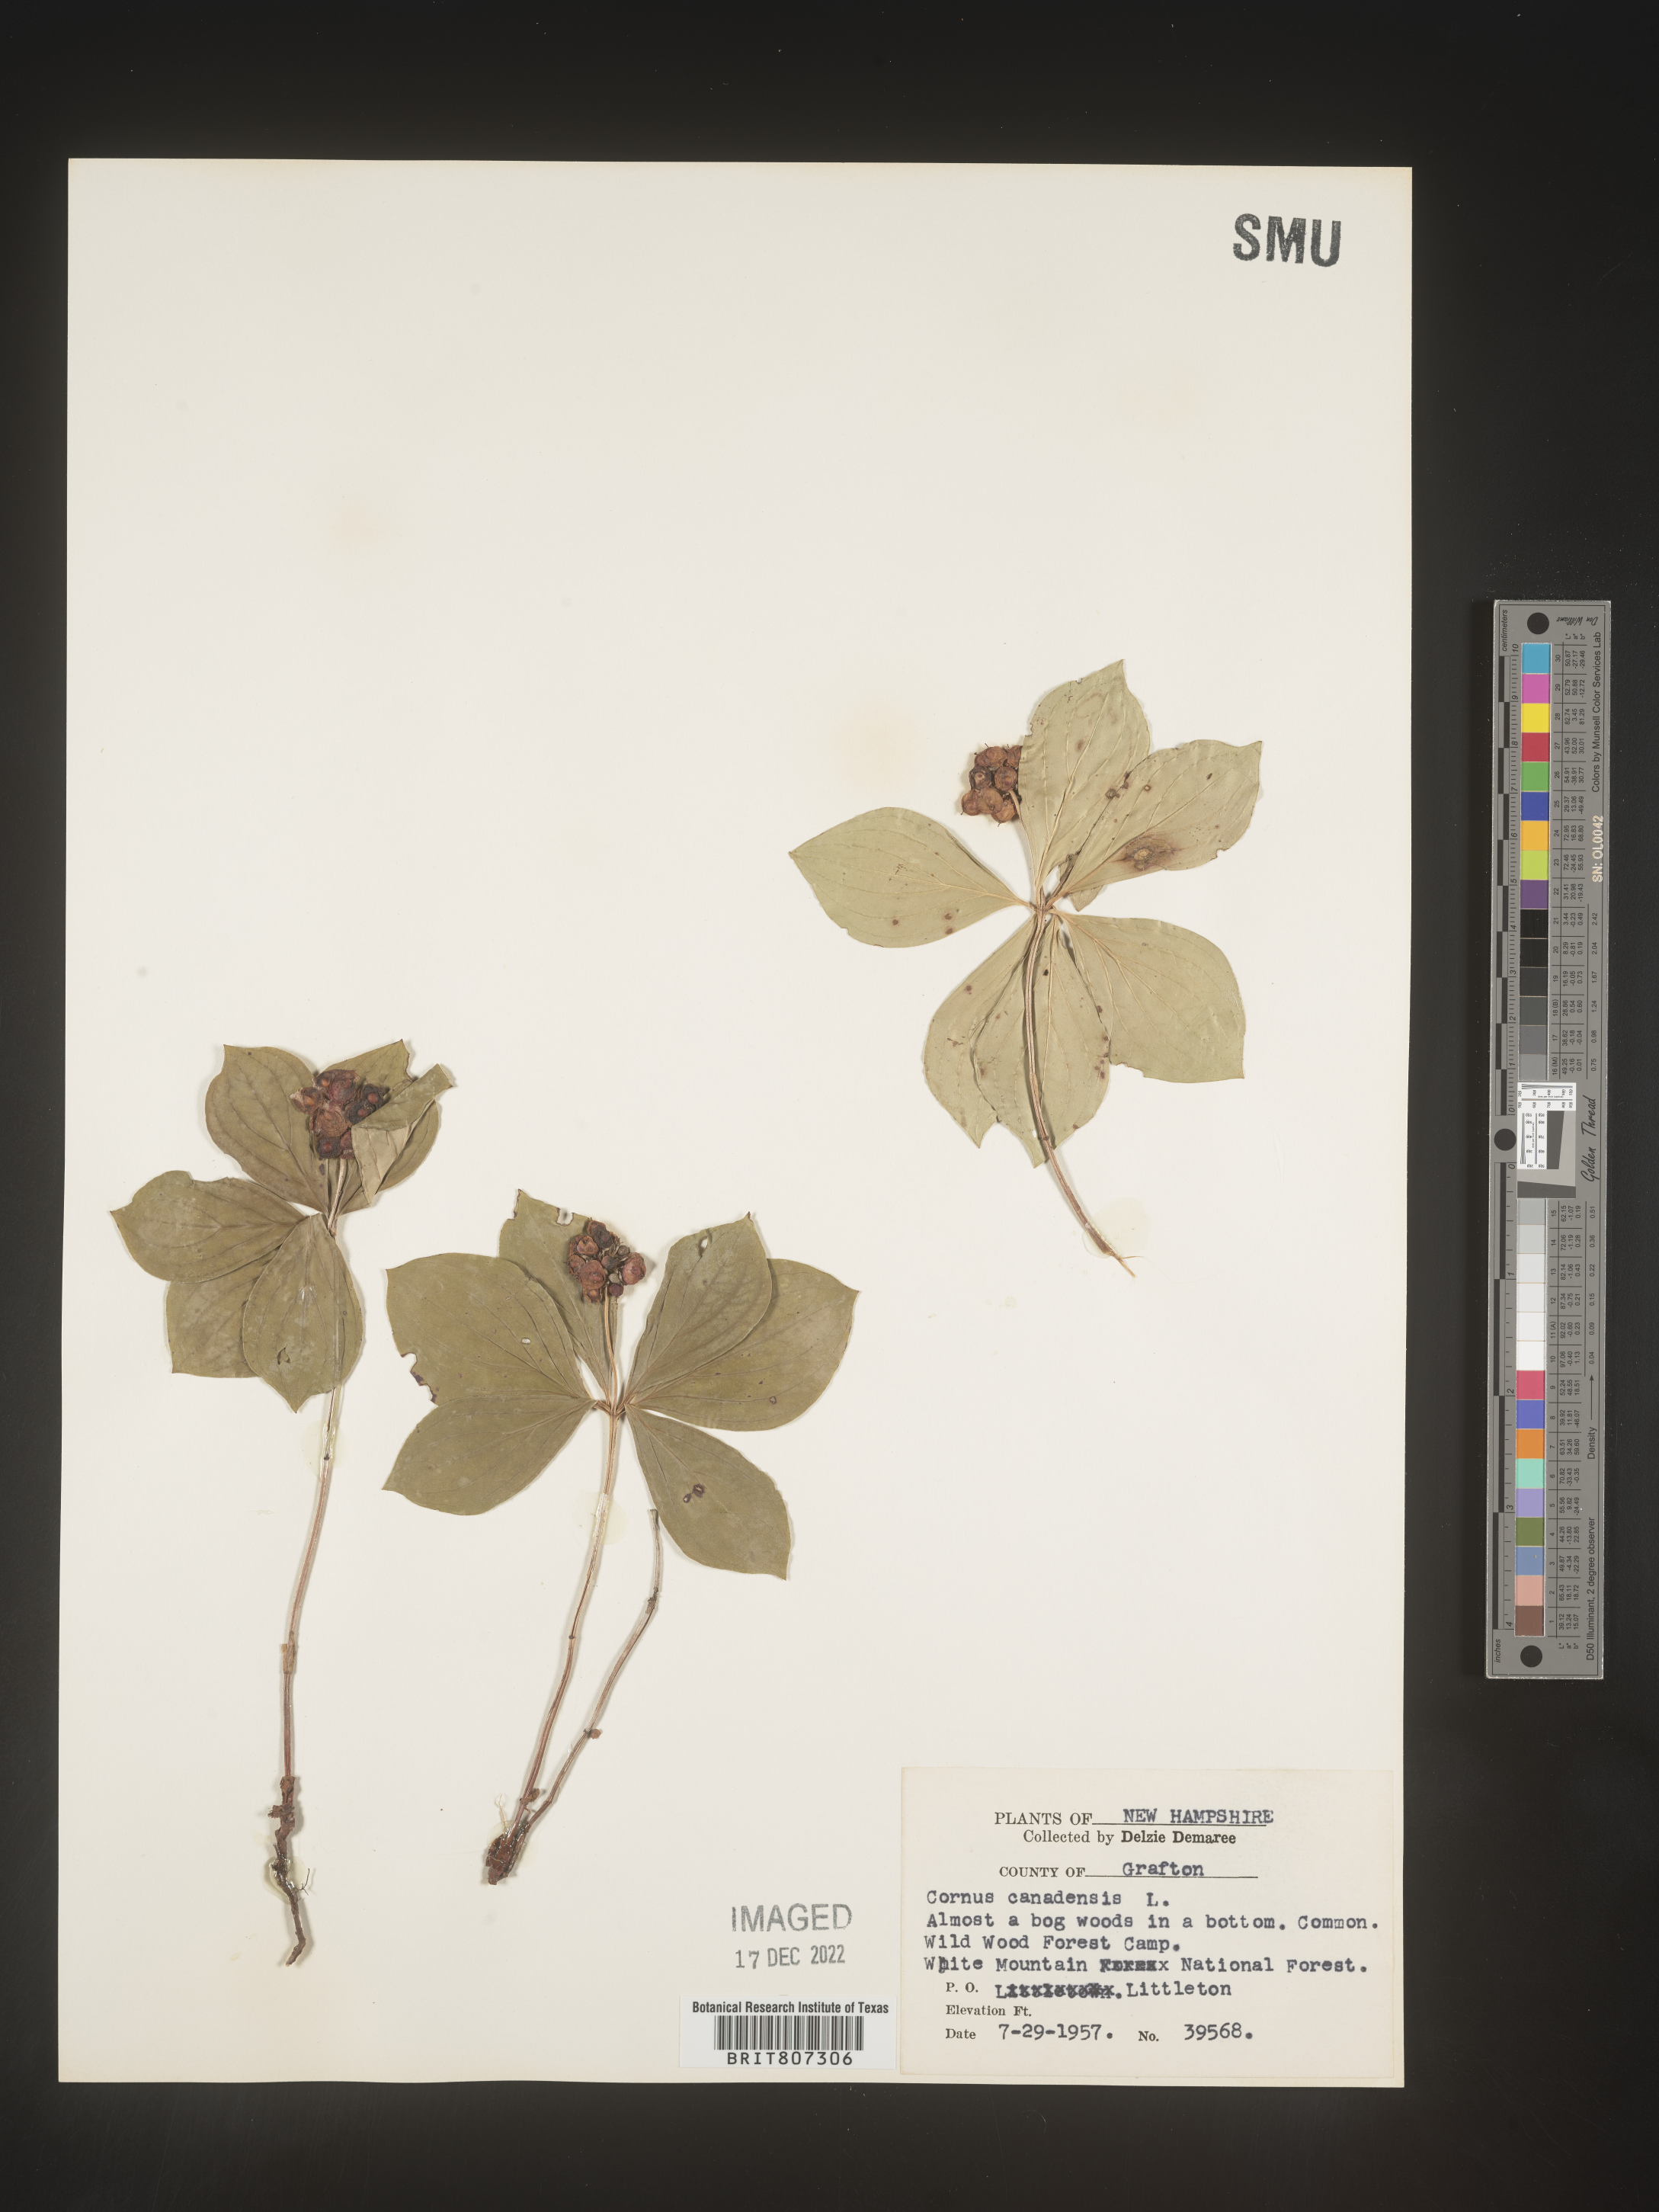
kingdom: Plantae
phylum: Tracheophyta
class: Magnoliopsida
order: Cornales
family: Cornaceae
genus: Cornus
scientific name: Cornus canadensis
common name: Creeping dogwood
